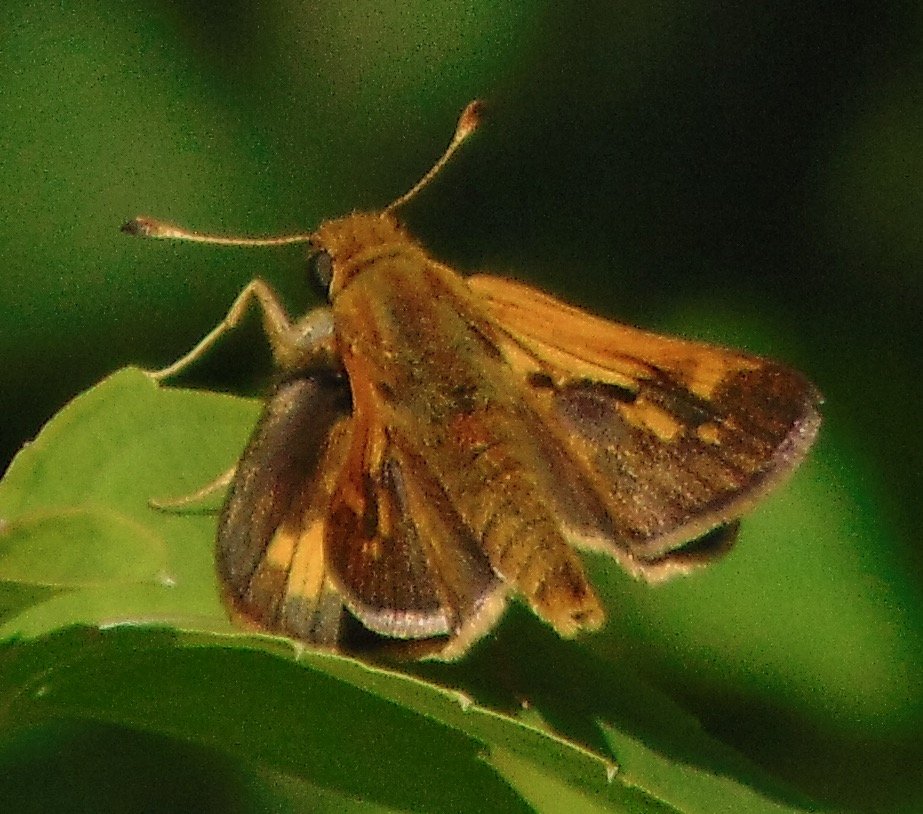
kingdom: Animalia
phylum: Arthropoda
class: Insecta
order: Lepidoptera
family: Hesperiidae
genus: Polites
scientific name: Polites coras
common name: Peck's Skipper
